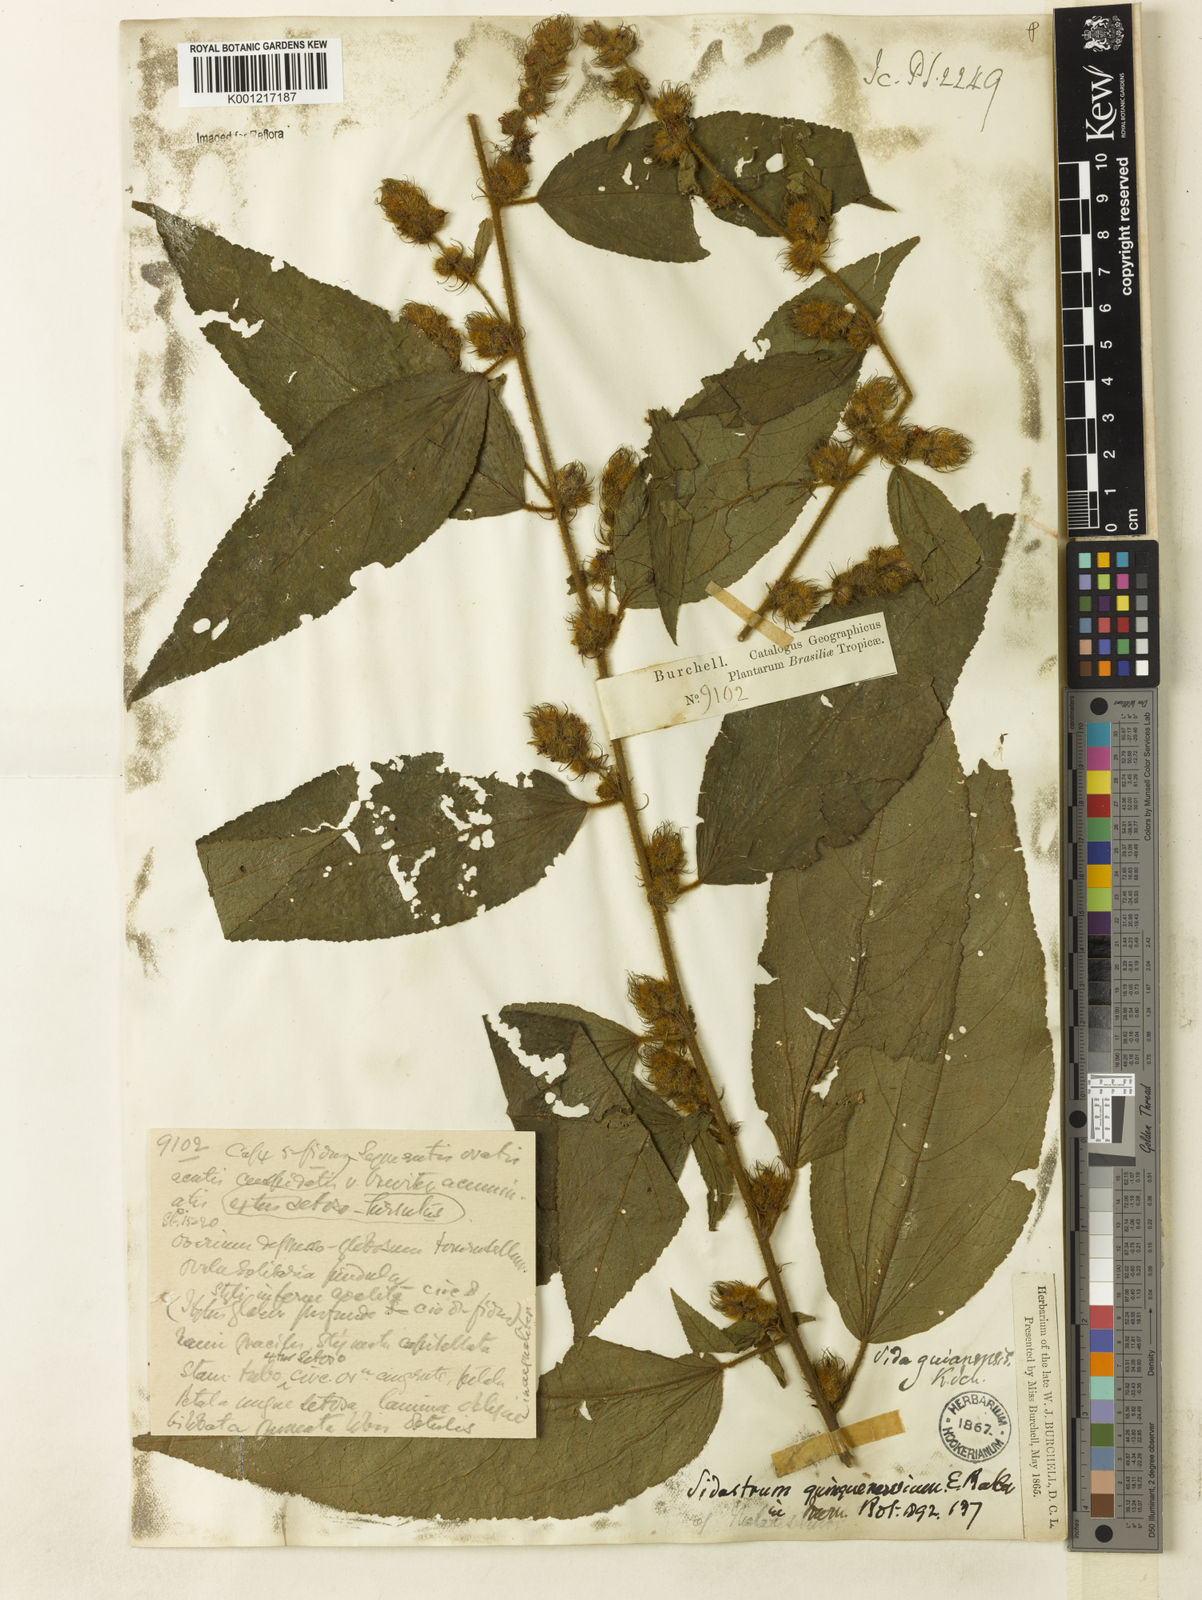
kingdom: Plantae
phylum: Tracheophyta
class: Magnoliopsida
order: Malvales
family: Malvaceae
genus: Sidastrum
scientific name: Sidastrum quinquenervium
